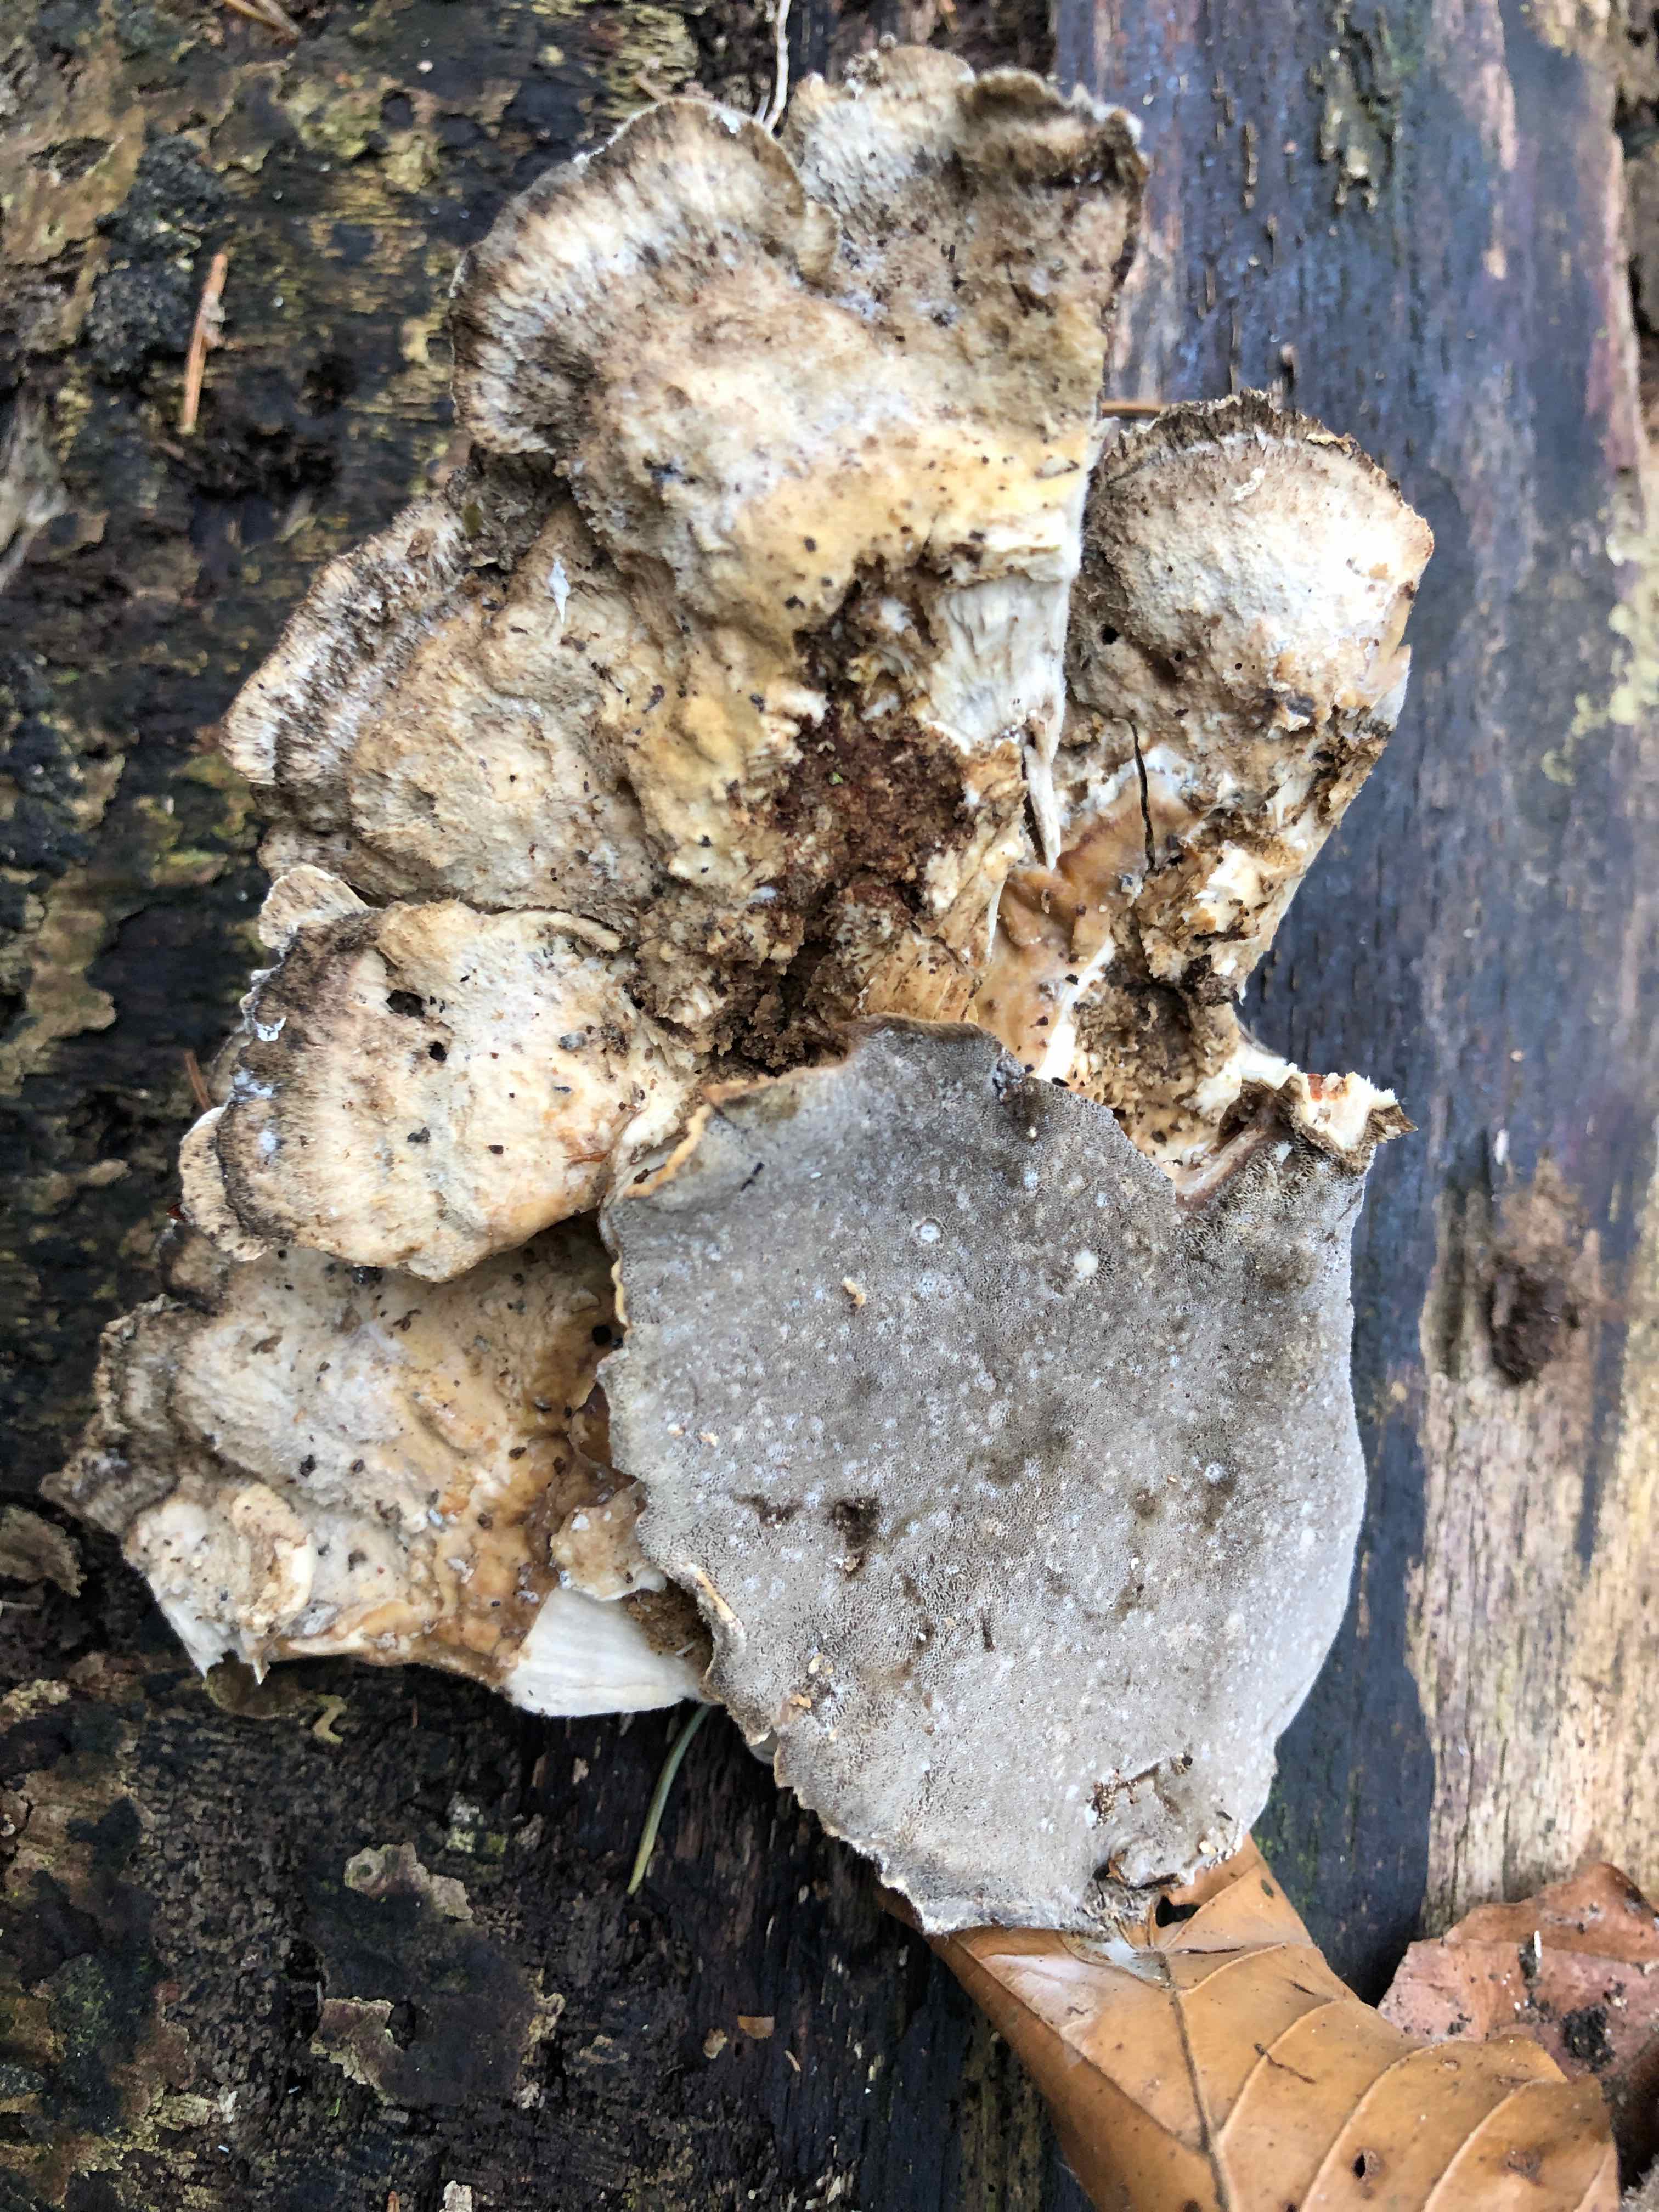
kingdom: Fungi
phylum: Basidiomycota
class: Agaricomycetes
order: Polyporales
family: Phanerochaetaceae
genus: Bjerkandera
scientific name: Bjerkandera adusta
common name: sveden sodporesvamp
